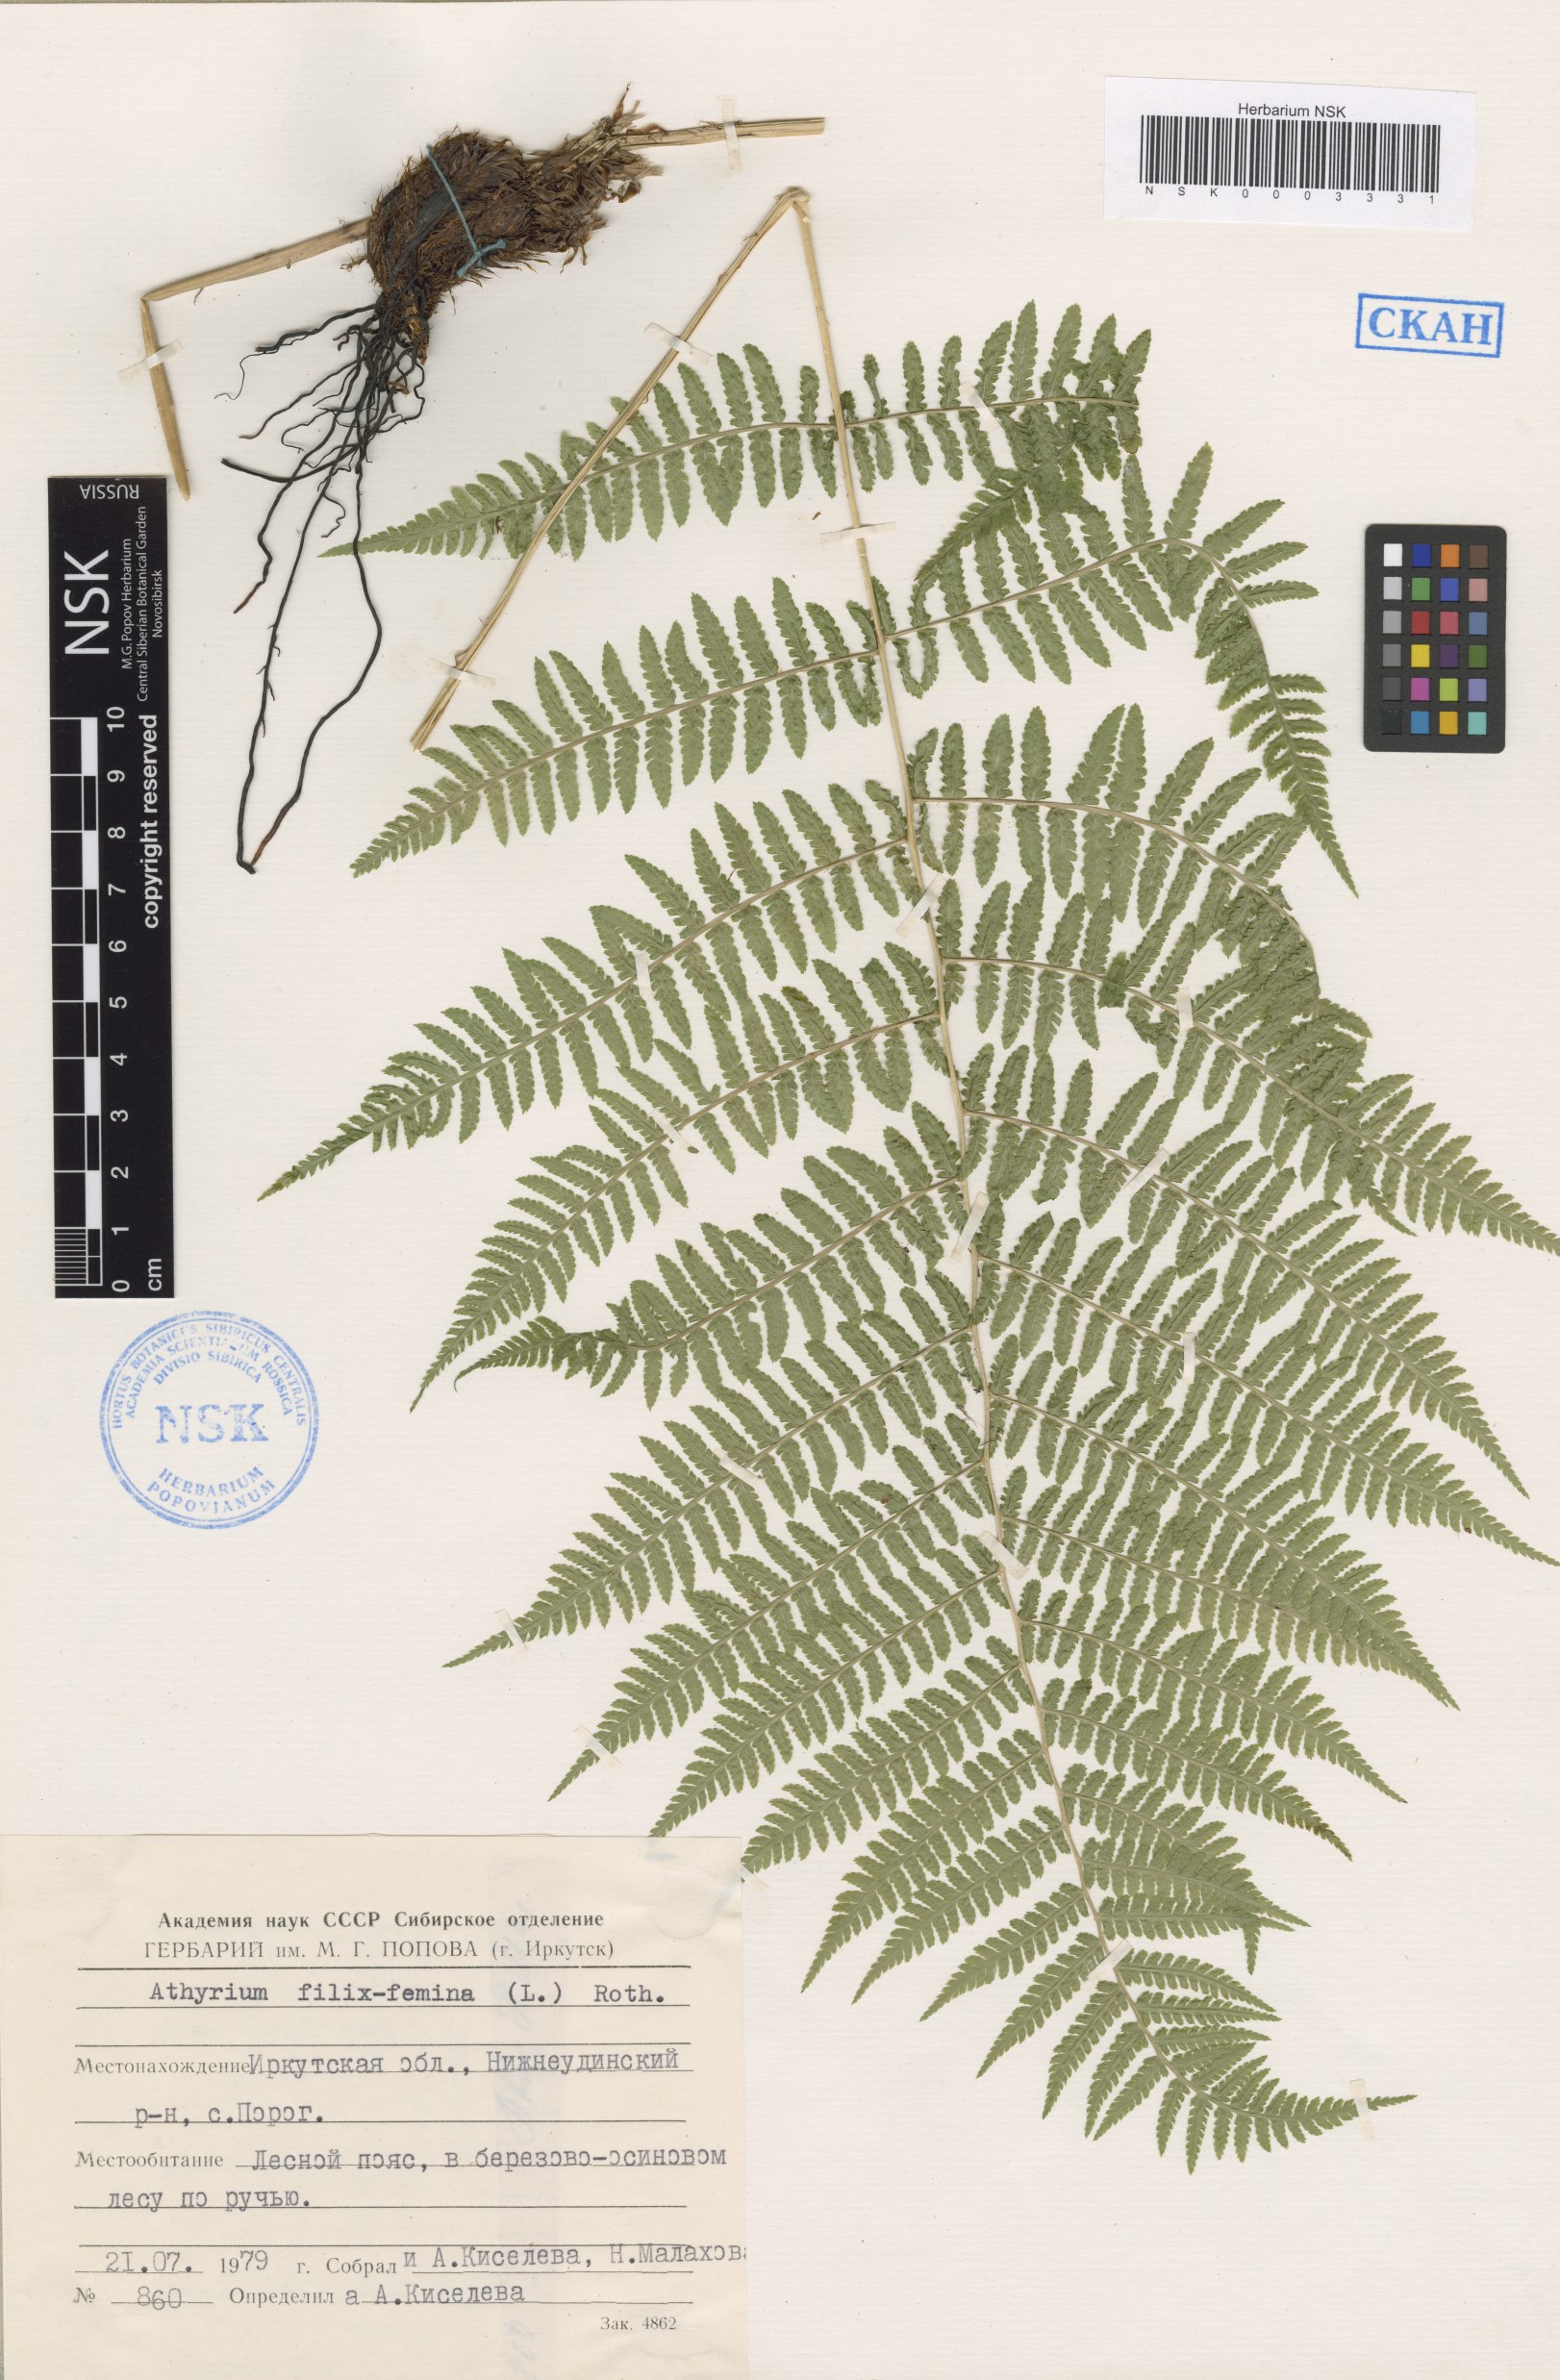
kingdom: Plantae
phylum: Tracheophyta
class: Polypodiopsida
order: Polypodiales
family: Athyriaceae
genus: Athyrium
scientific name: Athyrium filix-femina
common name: Lady fern
